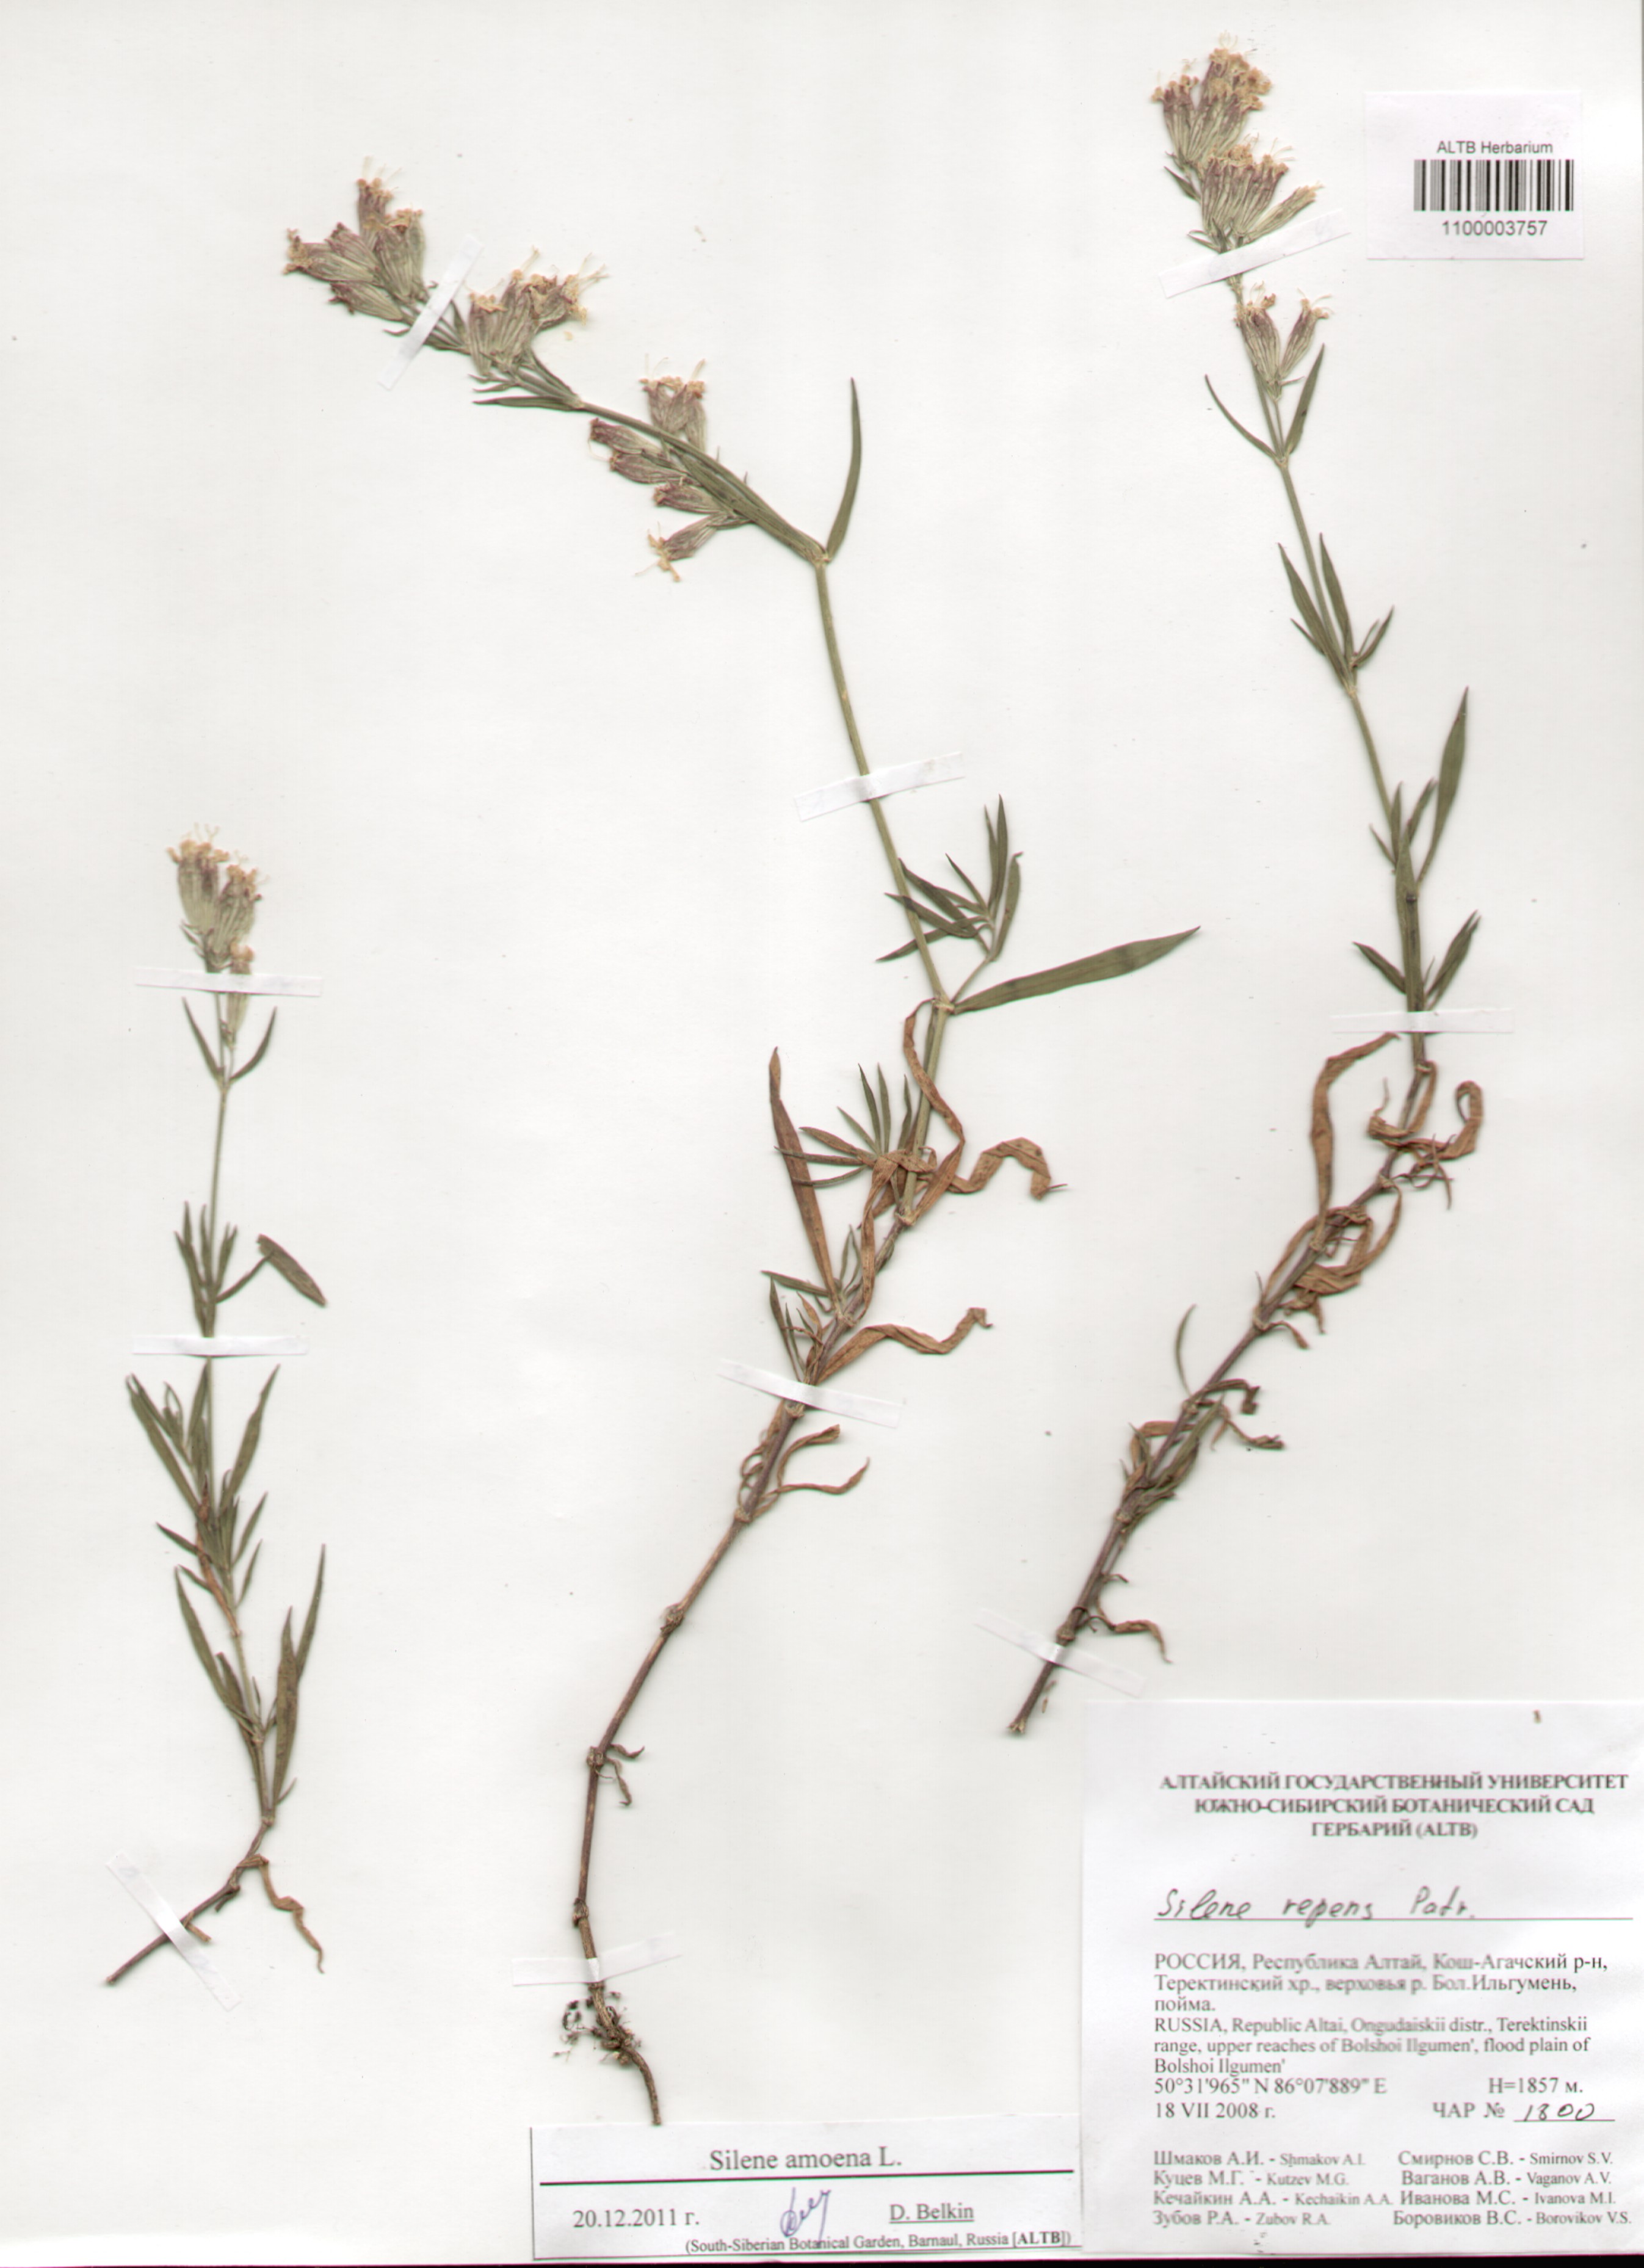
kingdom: Plantae
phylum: Tracheophyta
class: Magnoliopsida
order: Caryophyllales
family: Caryophyllaceae
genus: Silene
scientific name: Silene amoena
